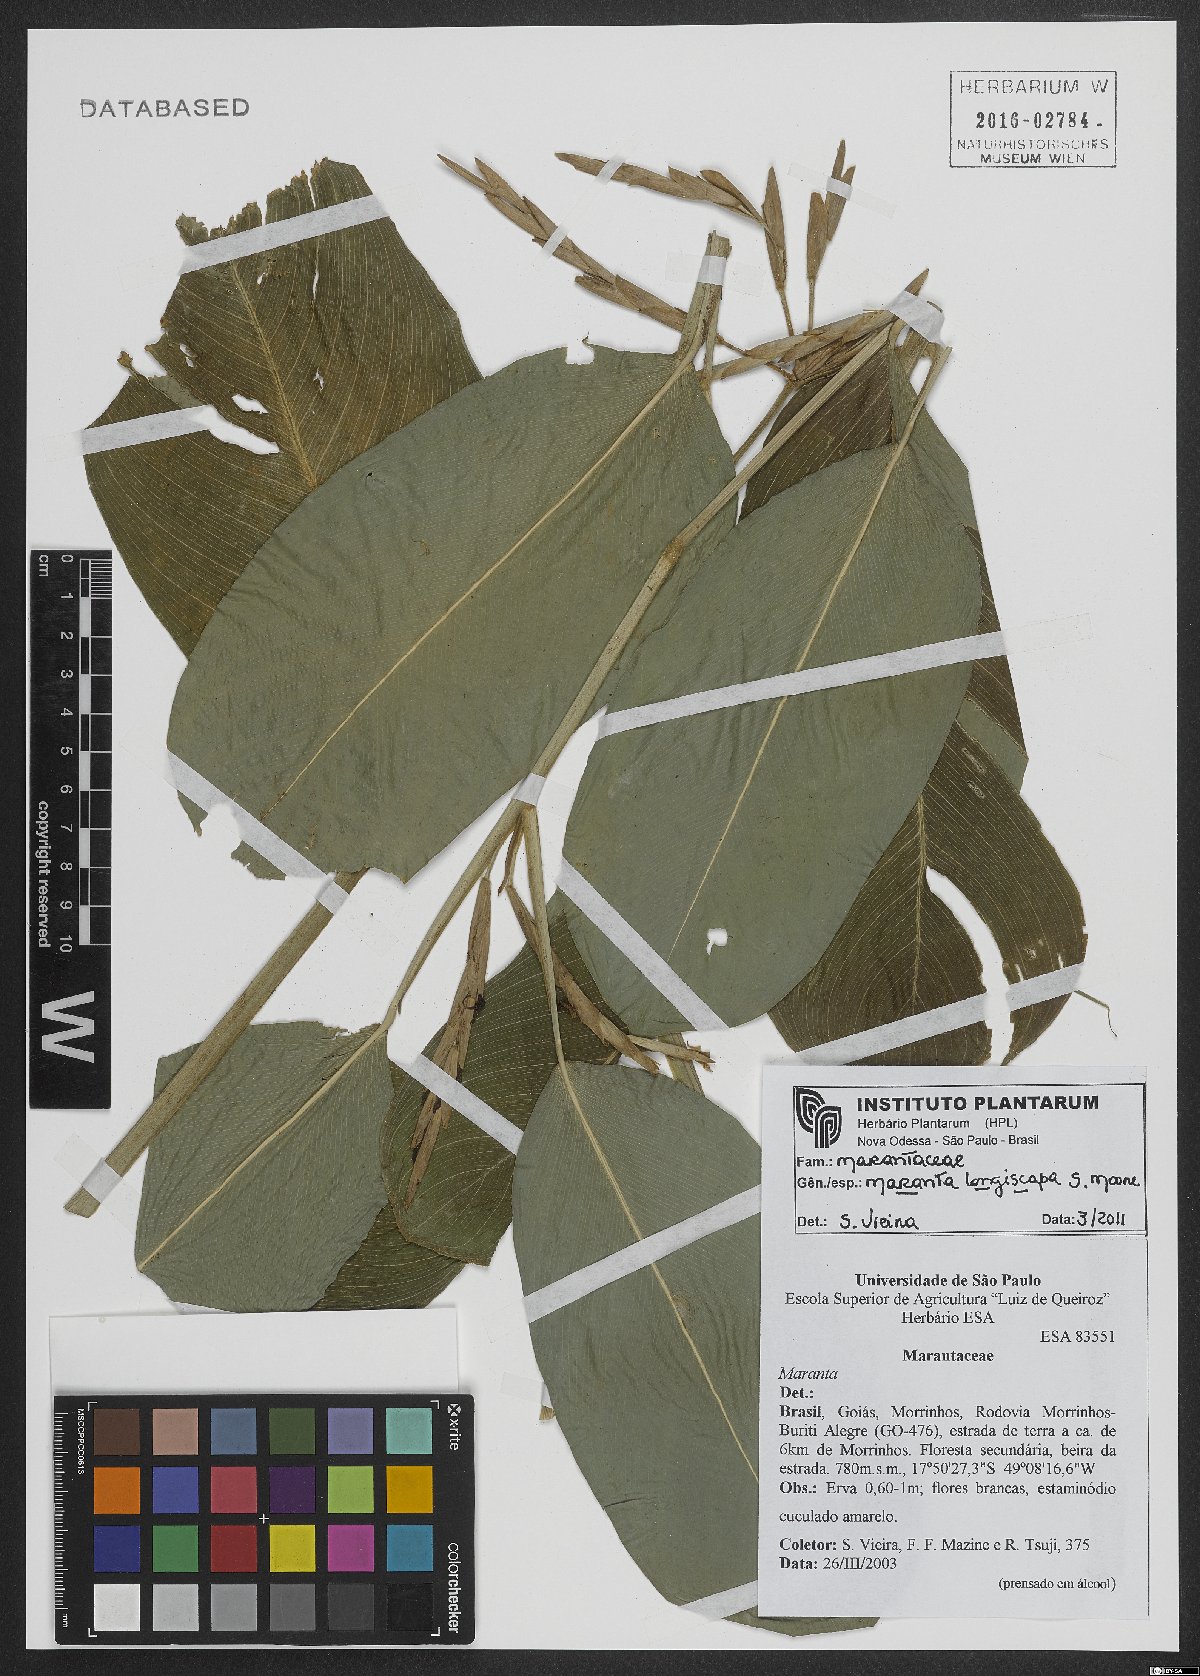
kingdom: Plantae
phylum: Tracheophyta
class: Liliopsida
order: Zingiberales
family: Marantaceae
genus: Maranta
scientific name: Maranta phrynioides
